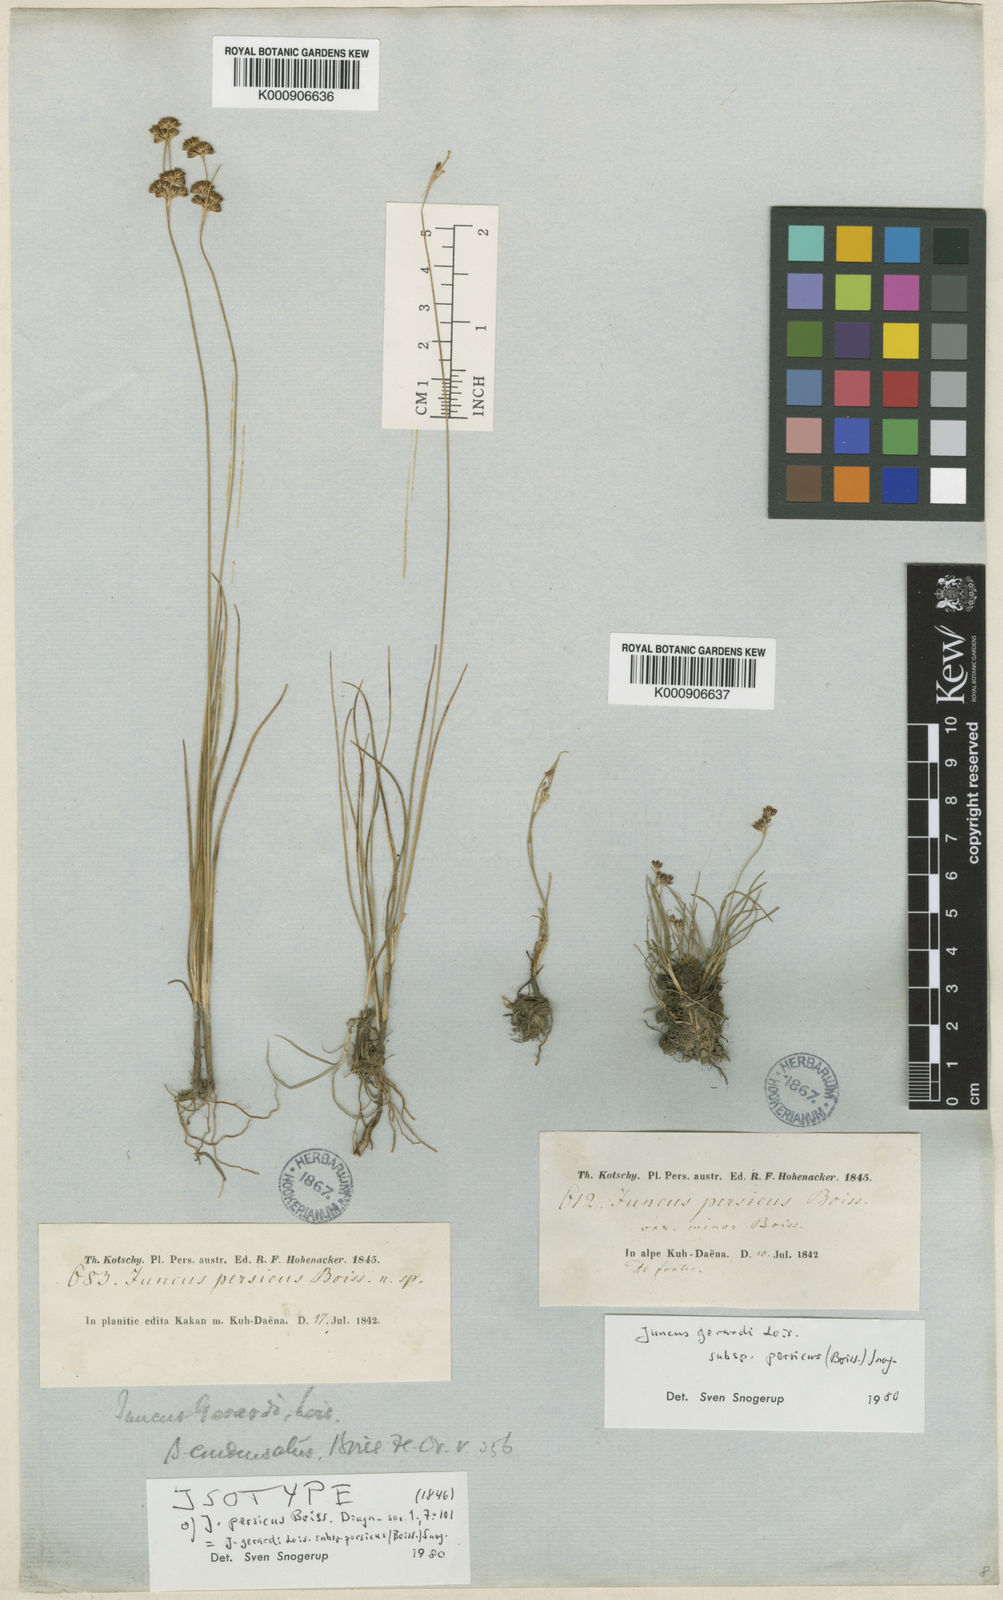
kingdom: Plantae
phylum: Tracheophyta
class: Liliopsida
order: Poales
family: Juncaceae
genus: Juncus
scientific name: Juncus persicus
